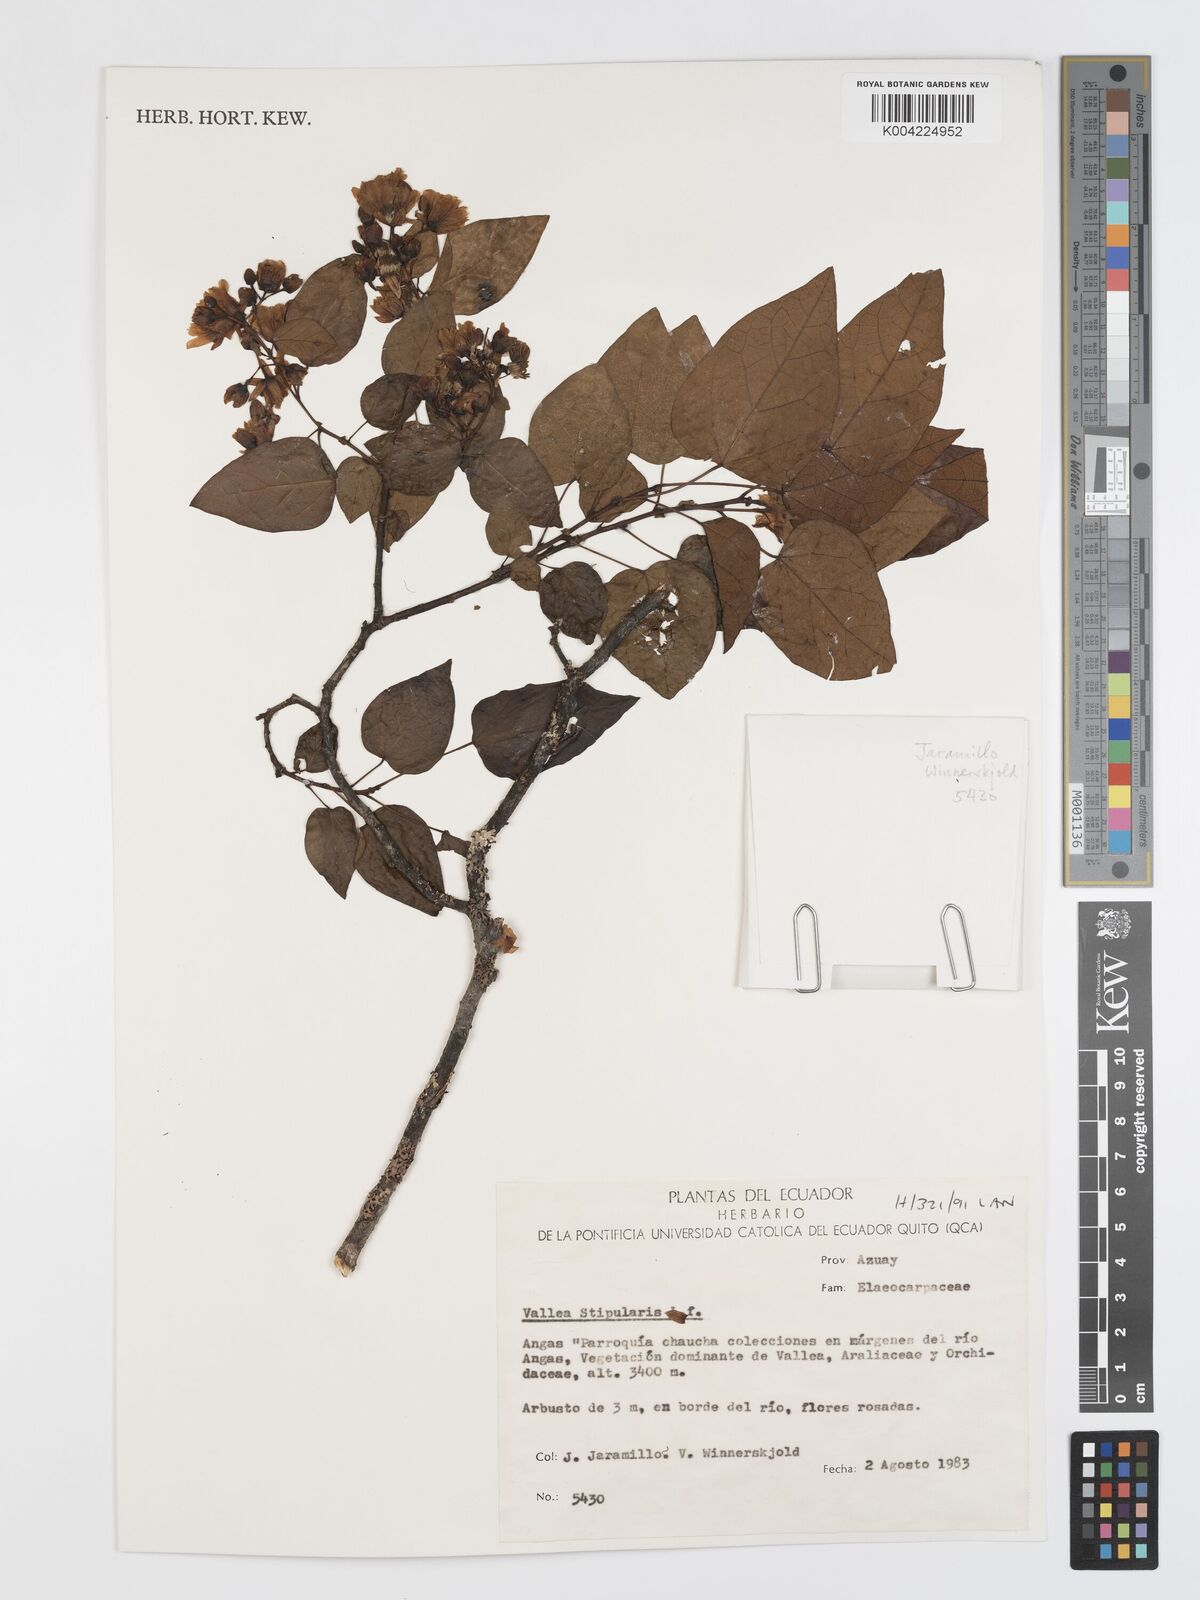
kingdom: Plantae
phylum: Tracheophyta
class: Magnoliopsida
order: Oxalidales
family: Elaeocarpaceae
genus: Vallea
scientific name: Vallea stipularis
